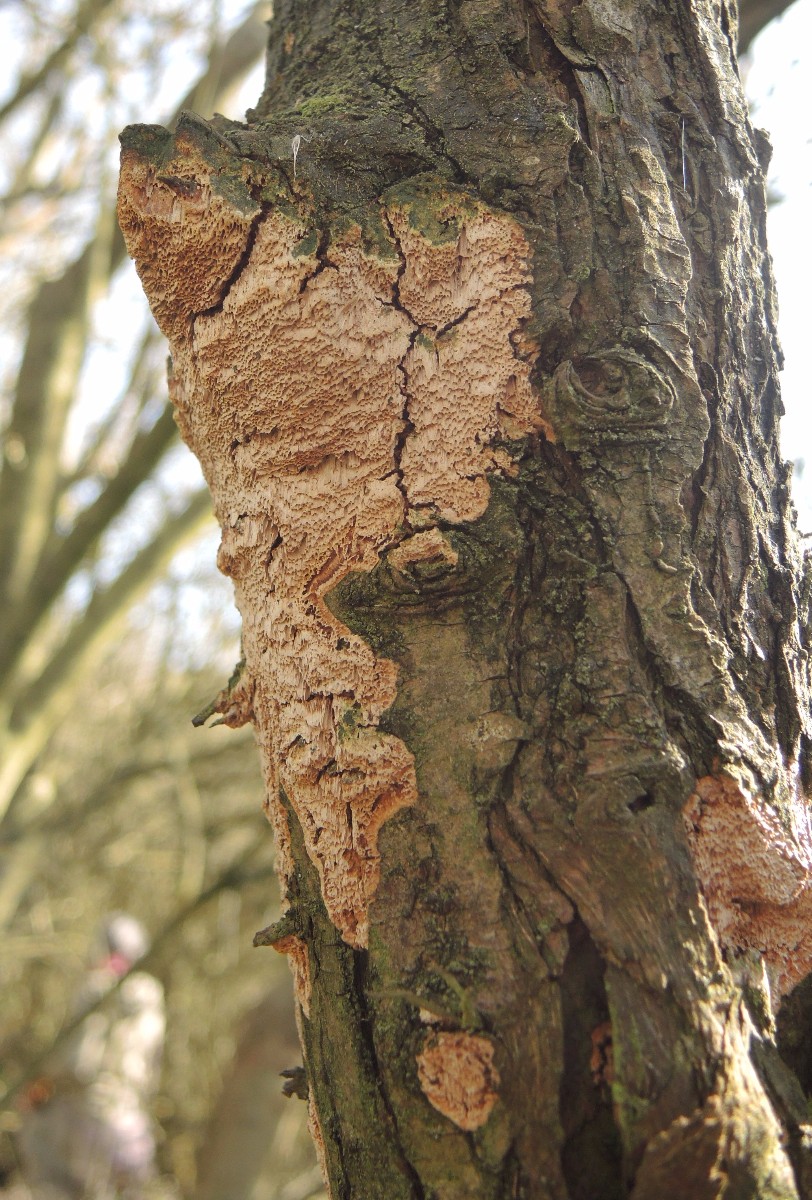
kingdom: Fungi
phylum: Basidiomycota
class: Agaricomycetes
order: Hymenochaetales
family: Hymenochaetaceae
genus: Fuscoporia
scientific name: Fuscoporia contigua
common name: grov ildporesvamp
